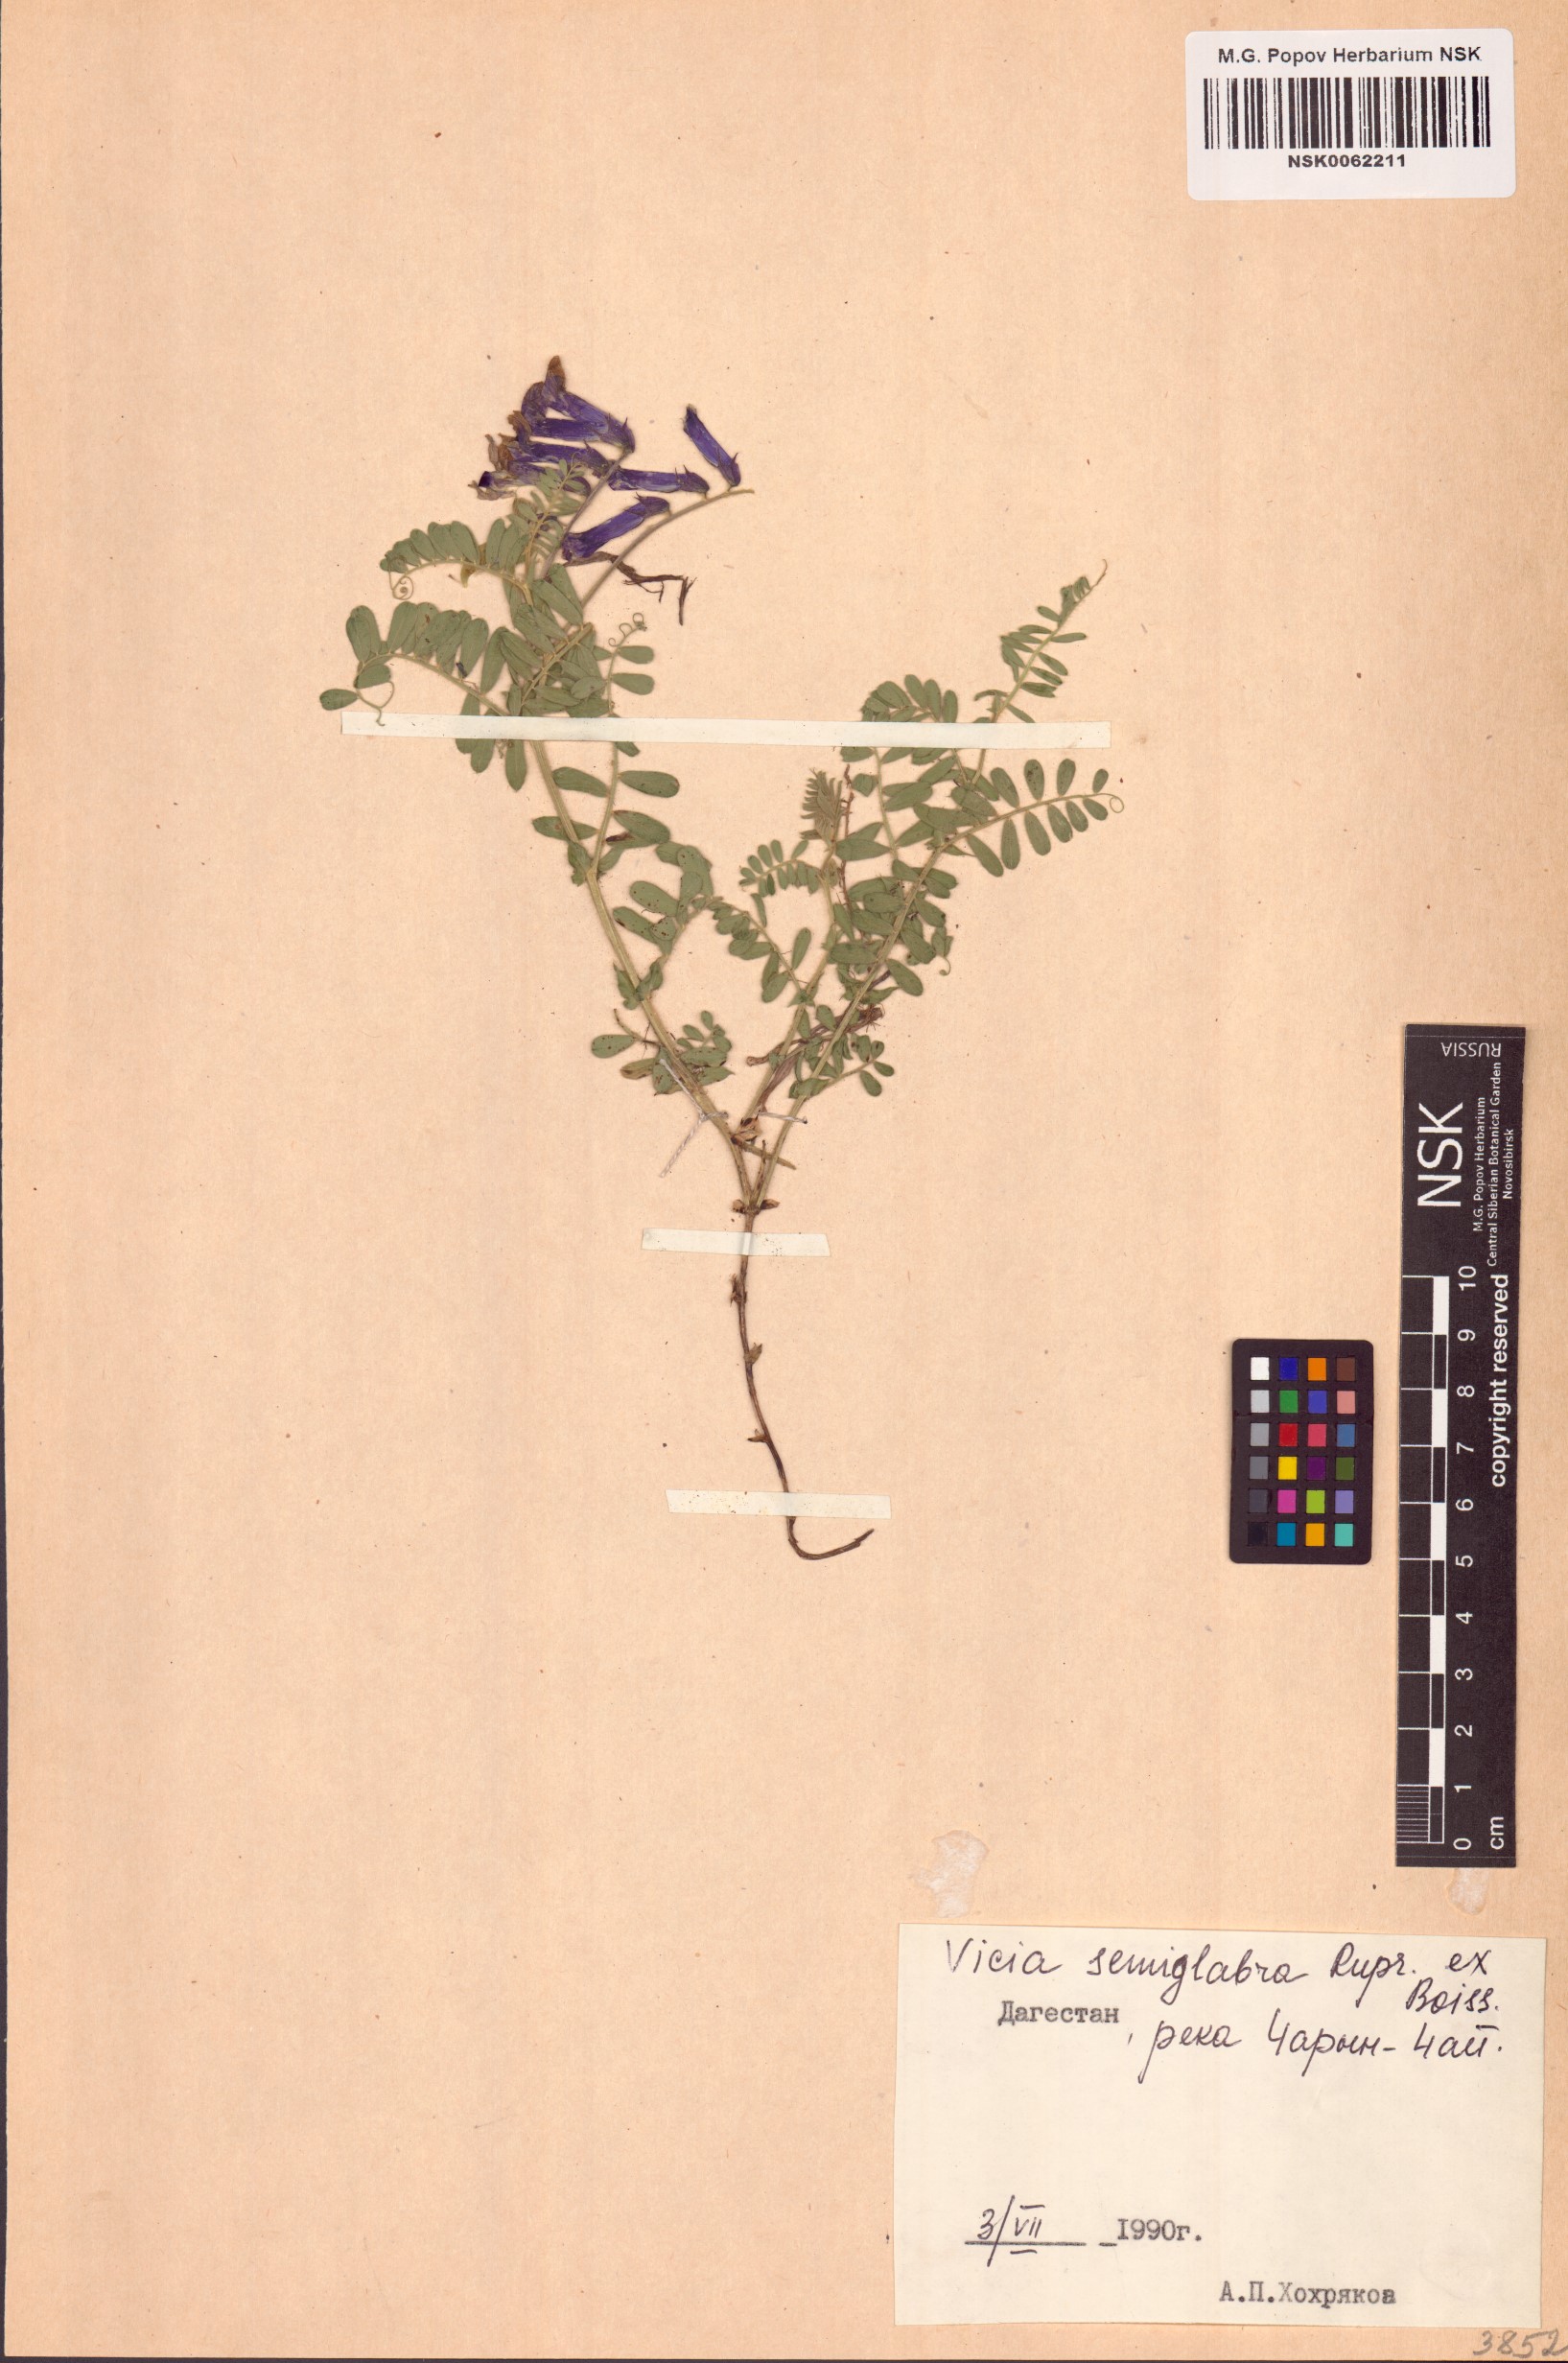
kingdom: Plantae
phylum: Tracheophyta
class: Magnoliopsida
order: Fabales
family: Fabaceae
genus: Vicia
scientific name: Vicia semiglabra
